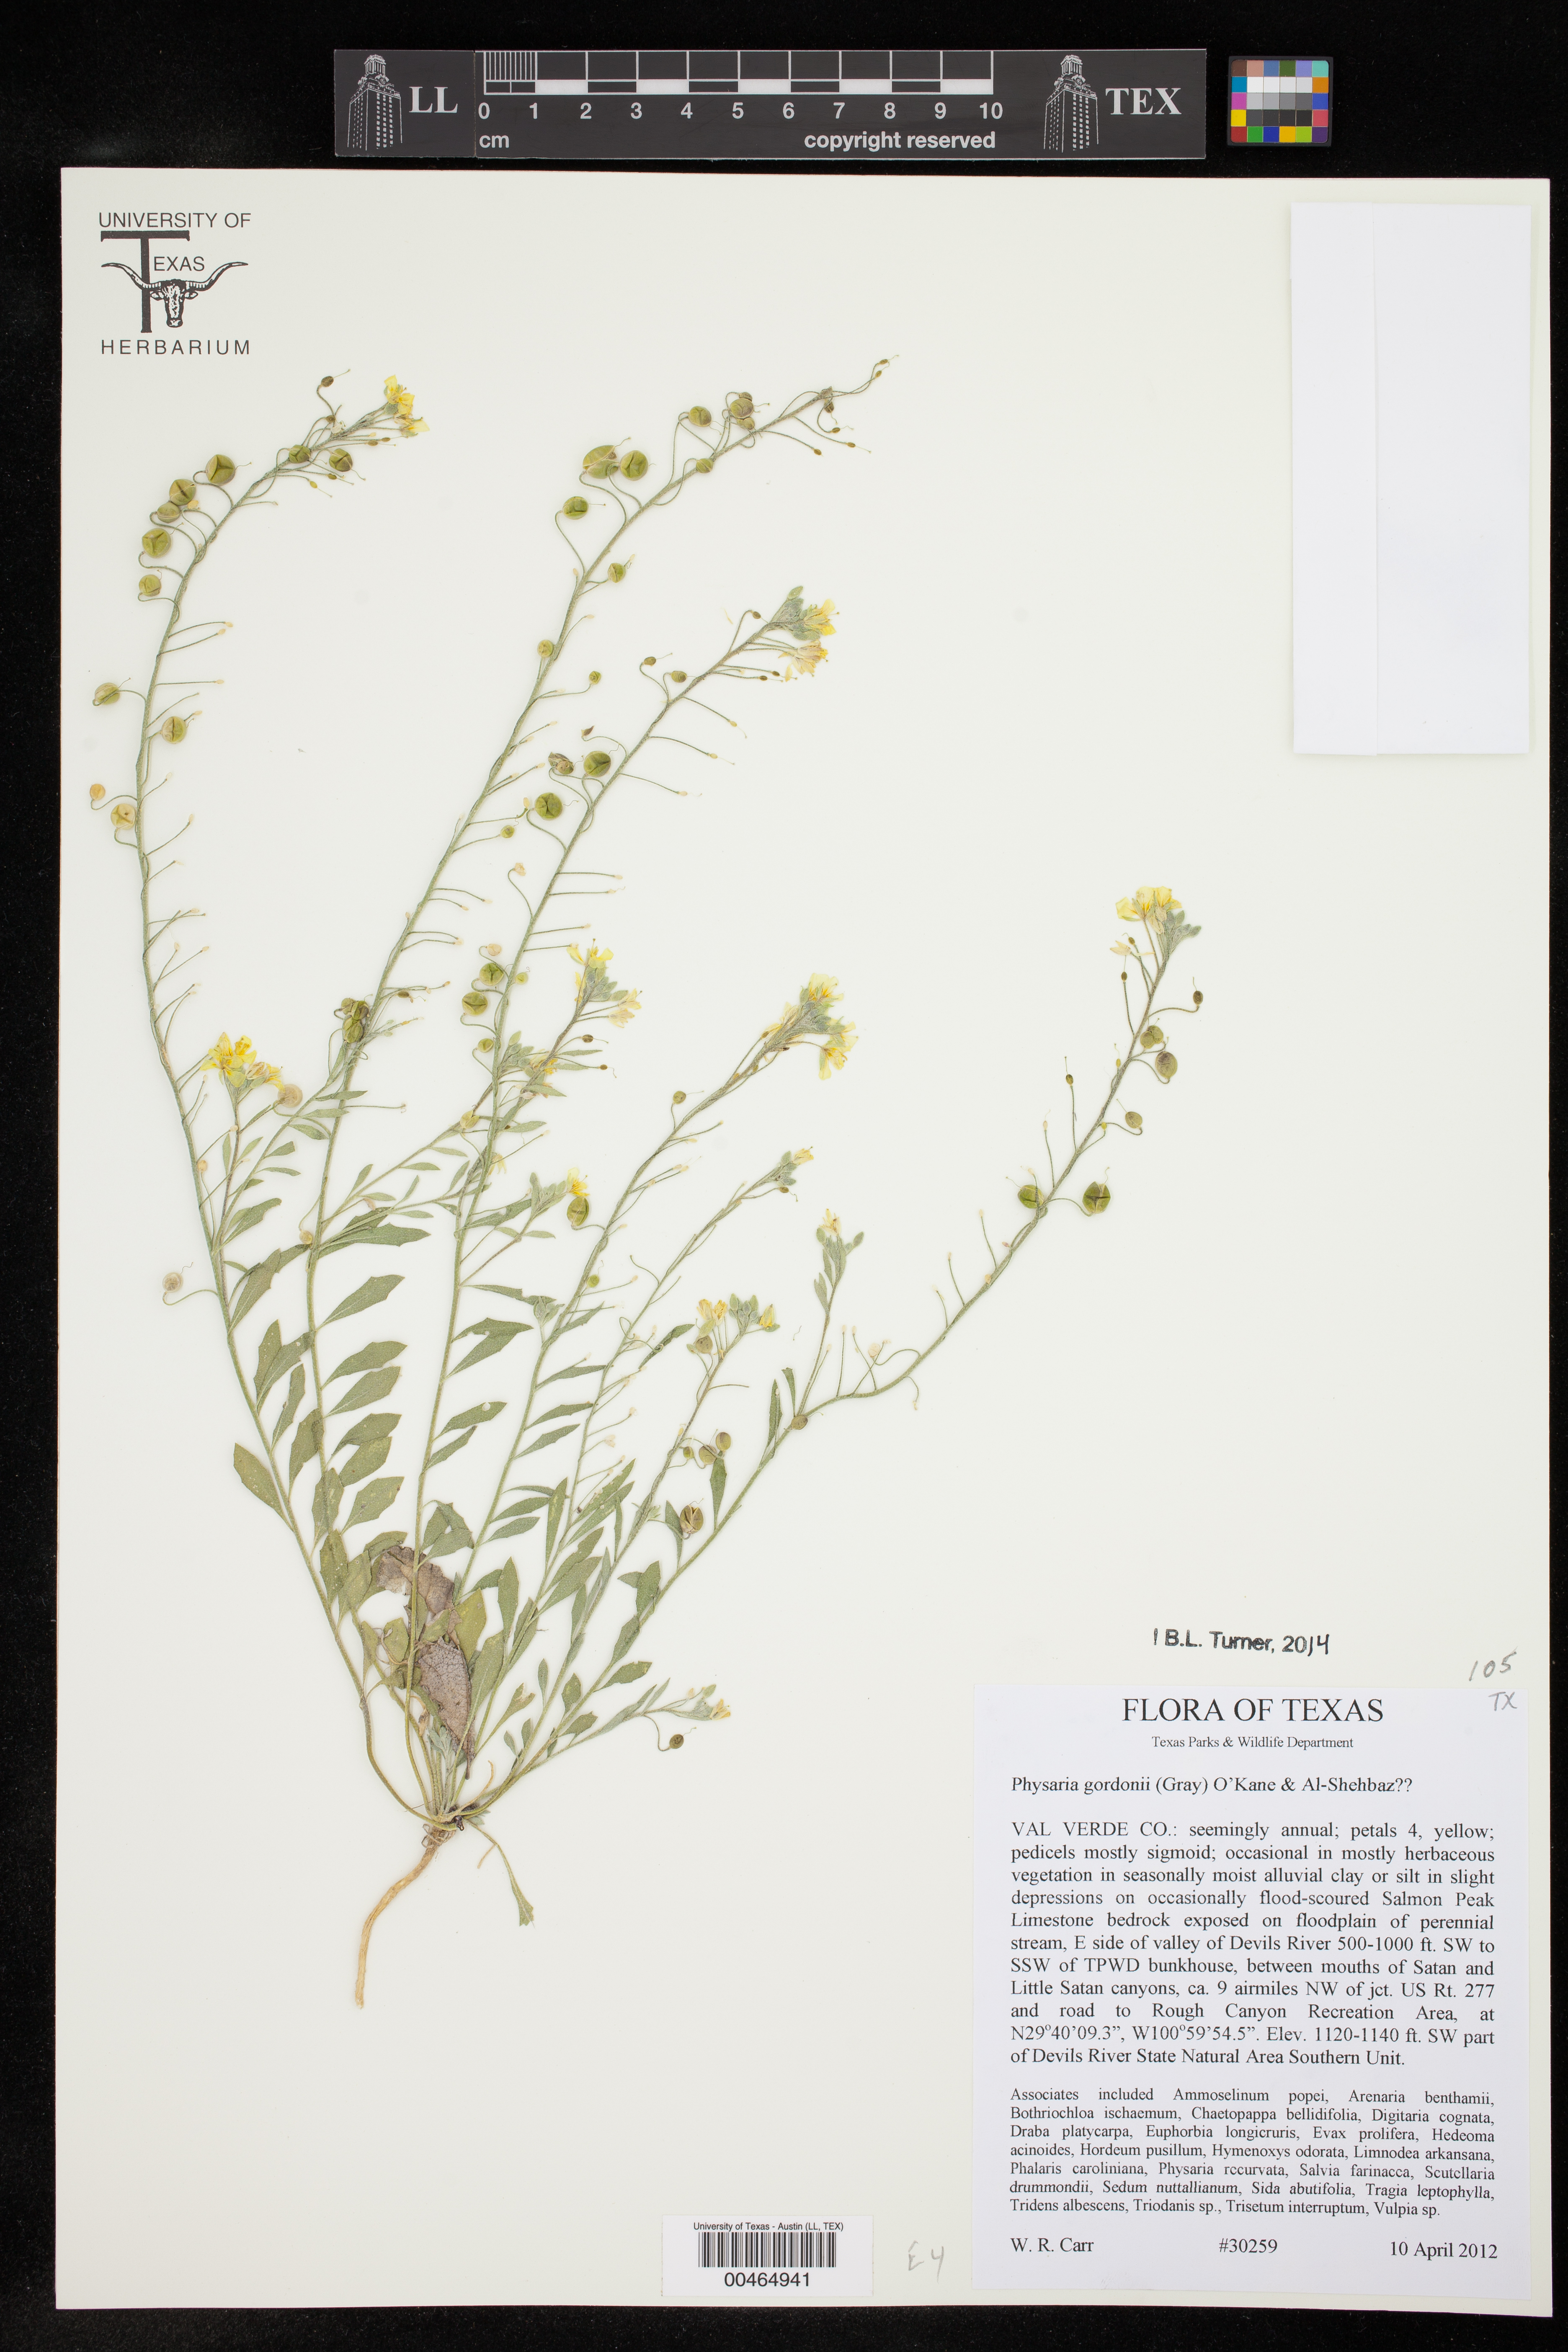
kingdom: Plantae
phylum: Tracheophyta
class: Magnoliopsida
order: Brassicales
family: Brassicaceae
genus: Physaria
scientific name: Physaria gordonii
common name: Gordon's bladderpod
